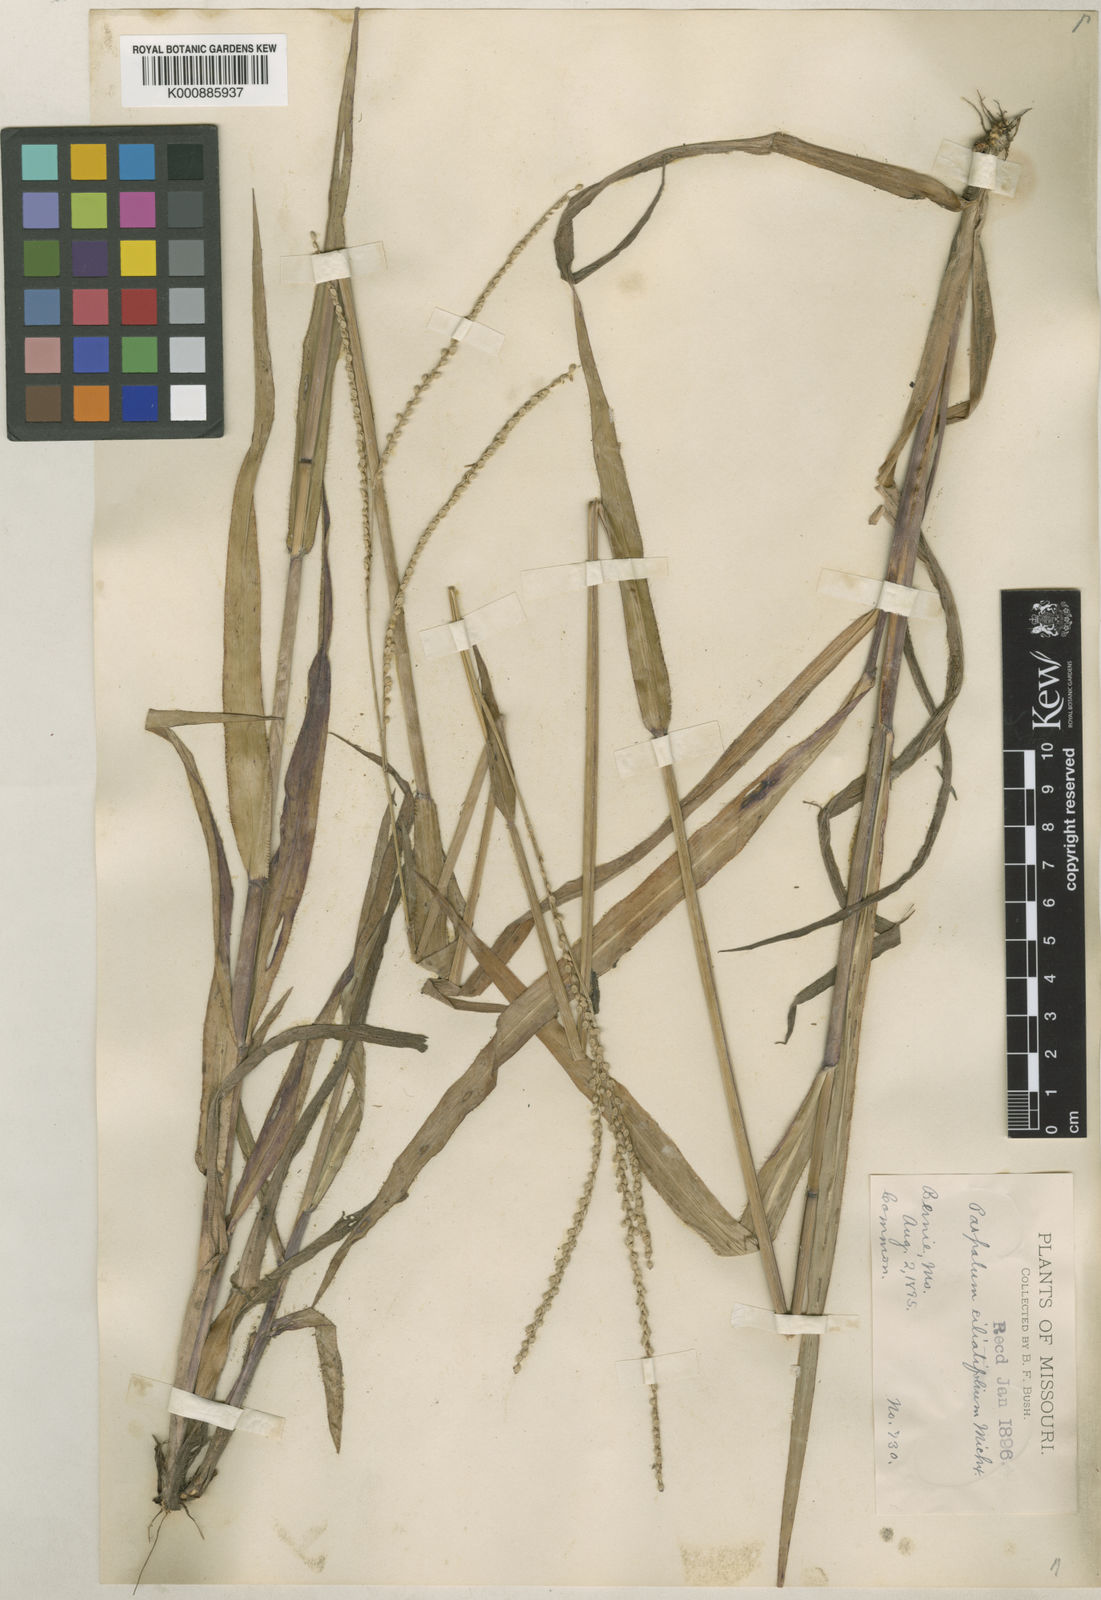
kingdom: Plantae
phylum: Tracheophyta
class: Liliopsida
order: Poales
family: Poaceae
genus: Paspalum
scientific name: Paspalum setaceum
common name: Slender paspalum
